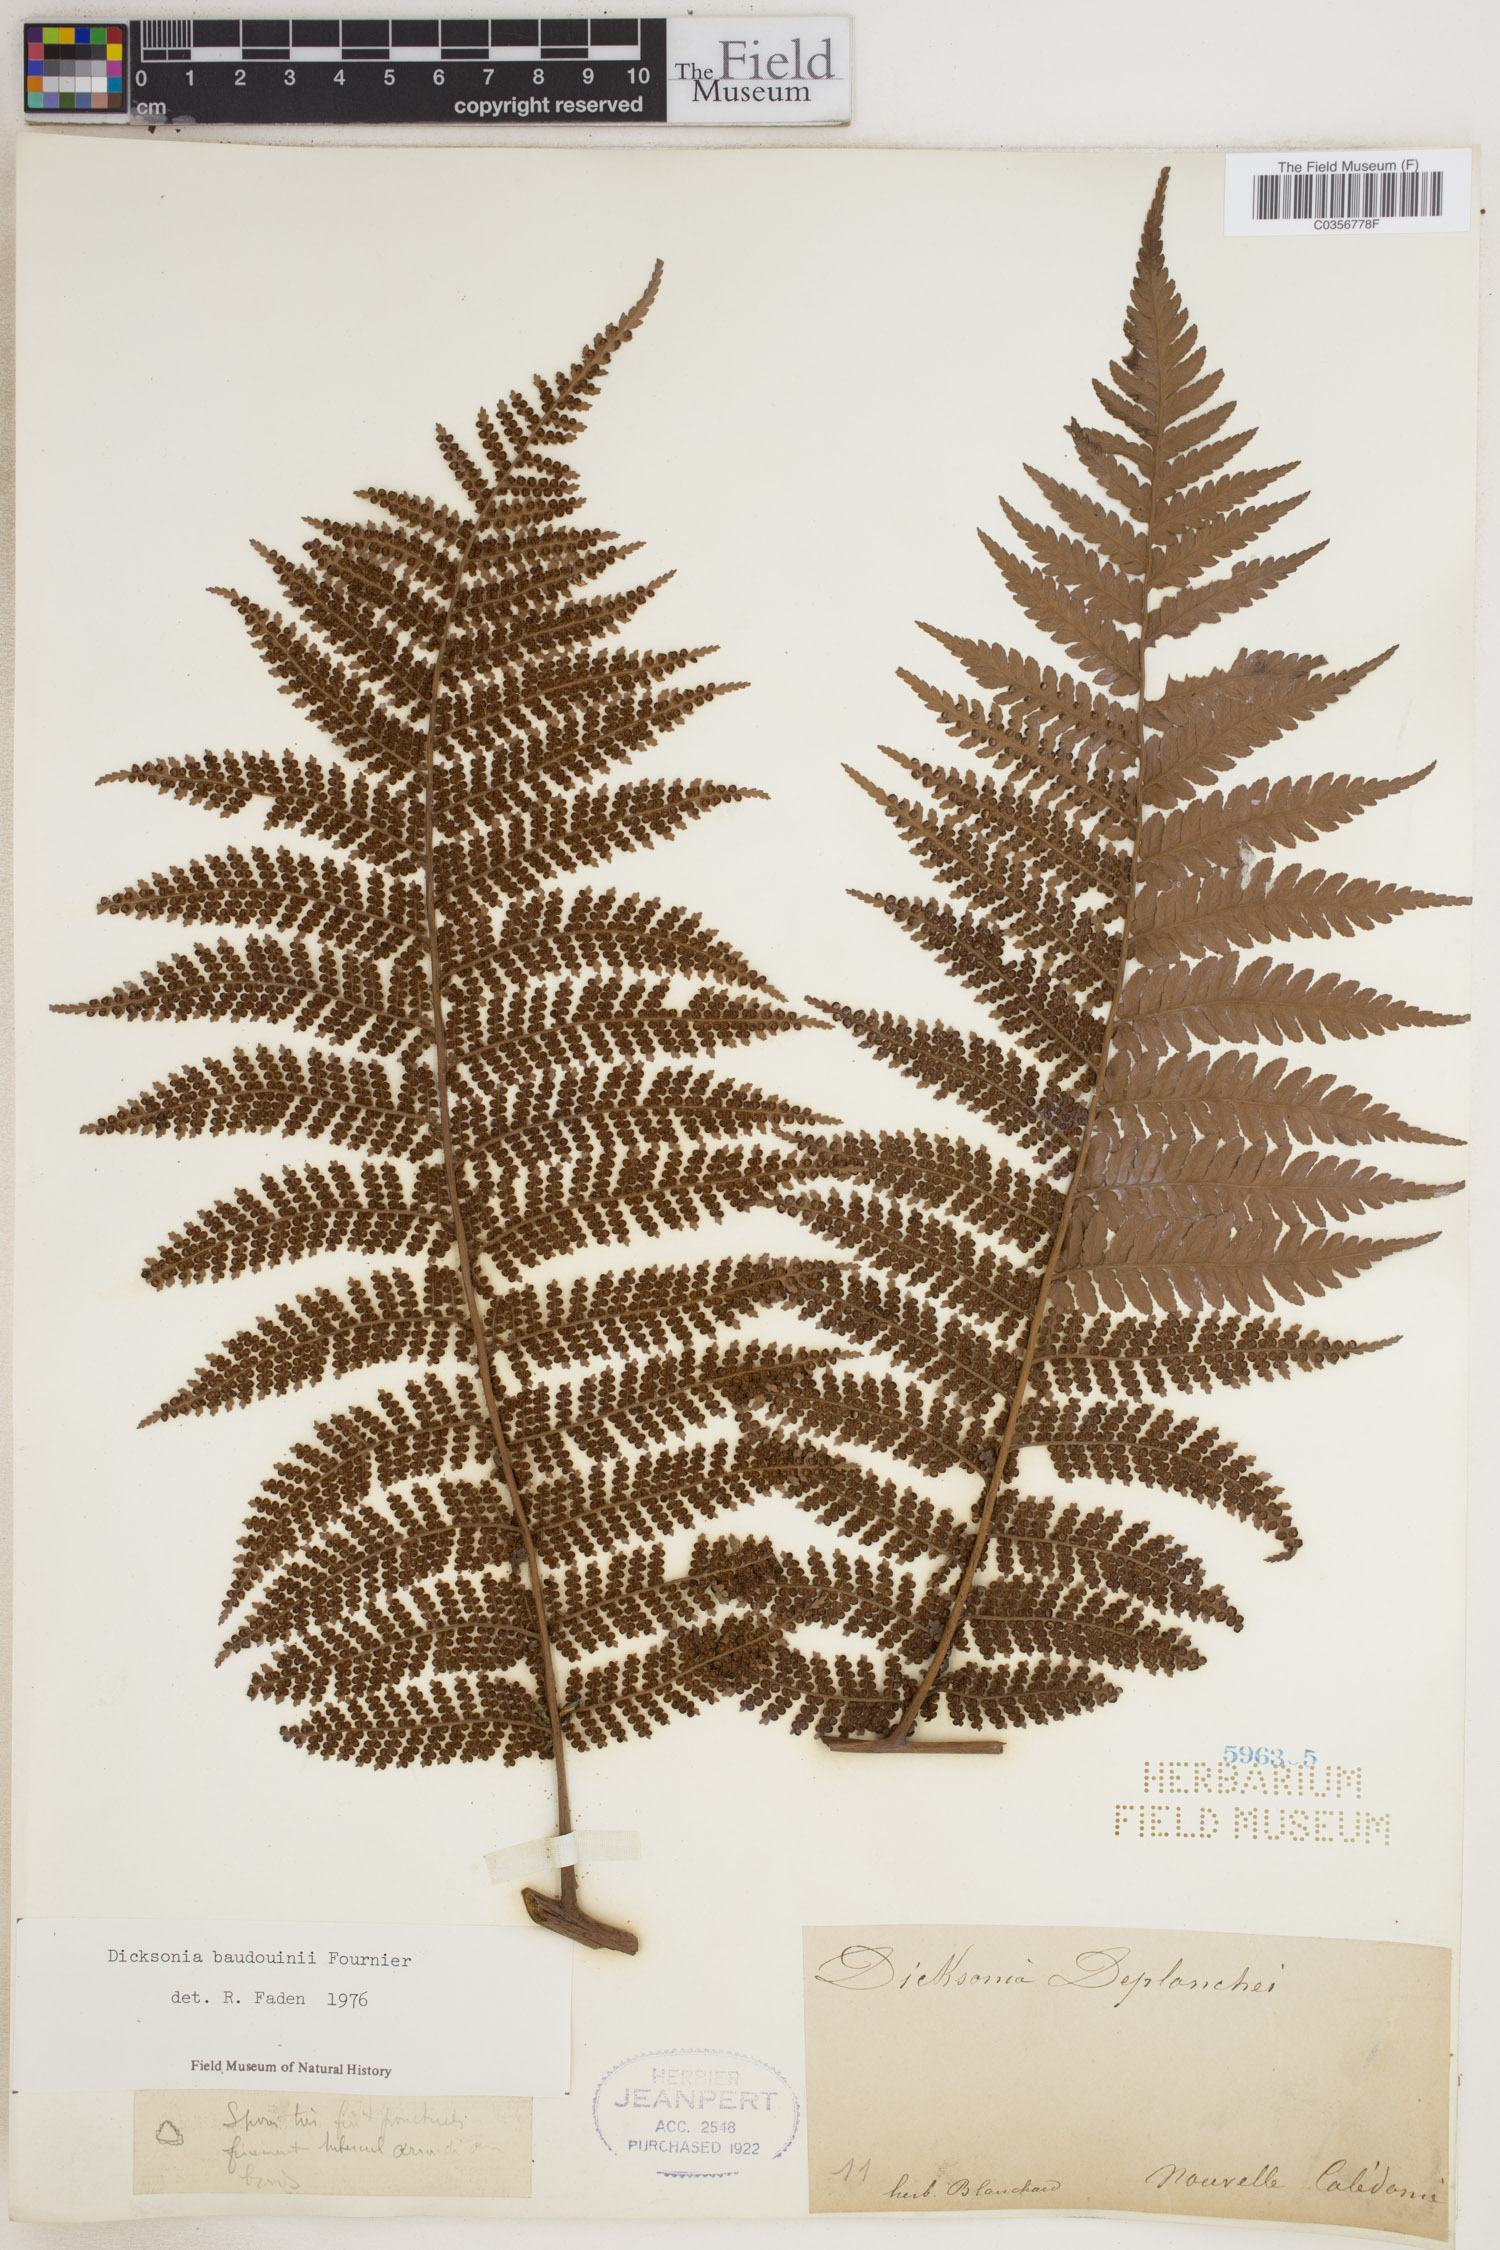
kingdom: Plantae
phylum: Tracheophyta
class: Polypodiopsida
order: Cyatheales
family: Dicksoniaceae
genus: Dicksonia
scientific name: Dicksonia baudouinii
